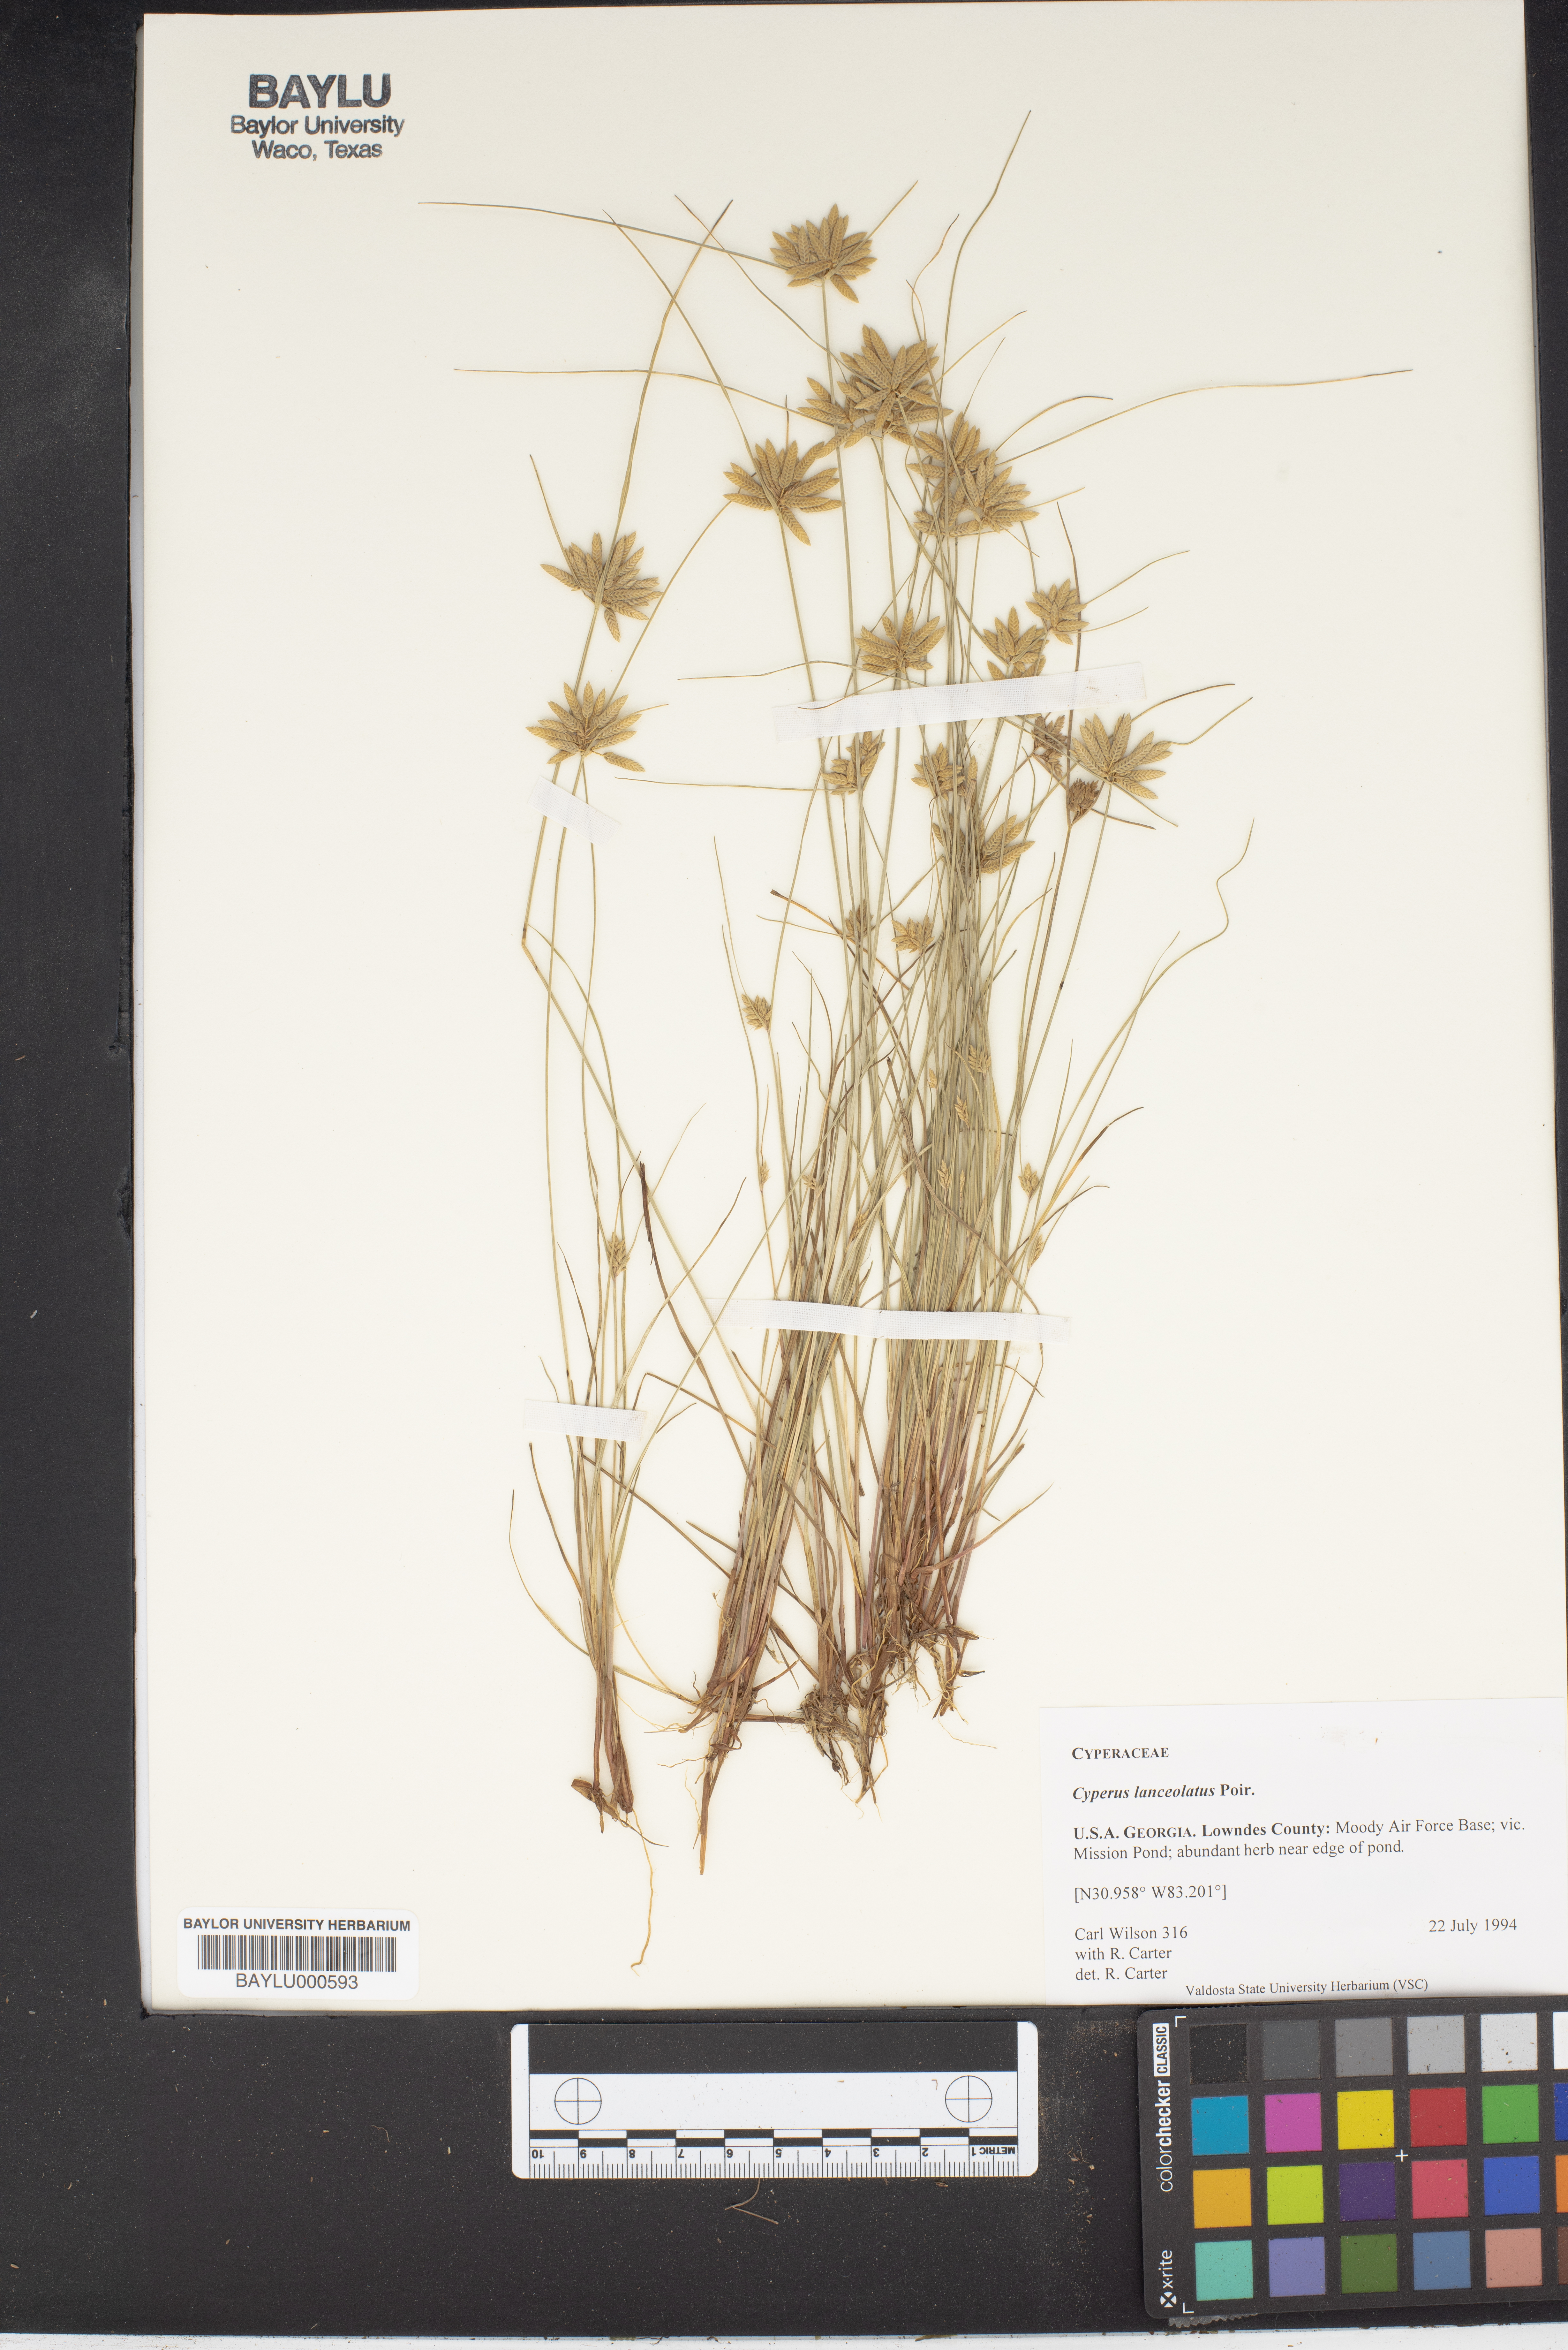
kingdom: Plantae
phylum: Tracheophyta
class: Liliopsida
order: Poales
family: Cyperaceae
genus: Cyperus
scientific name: Cyperus lanceolatus
